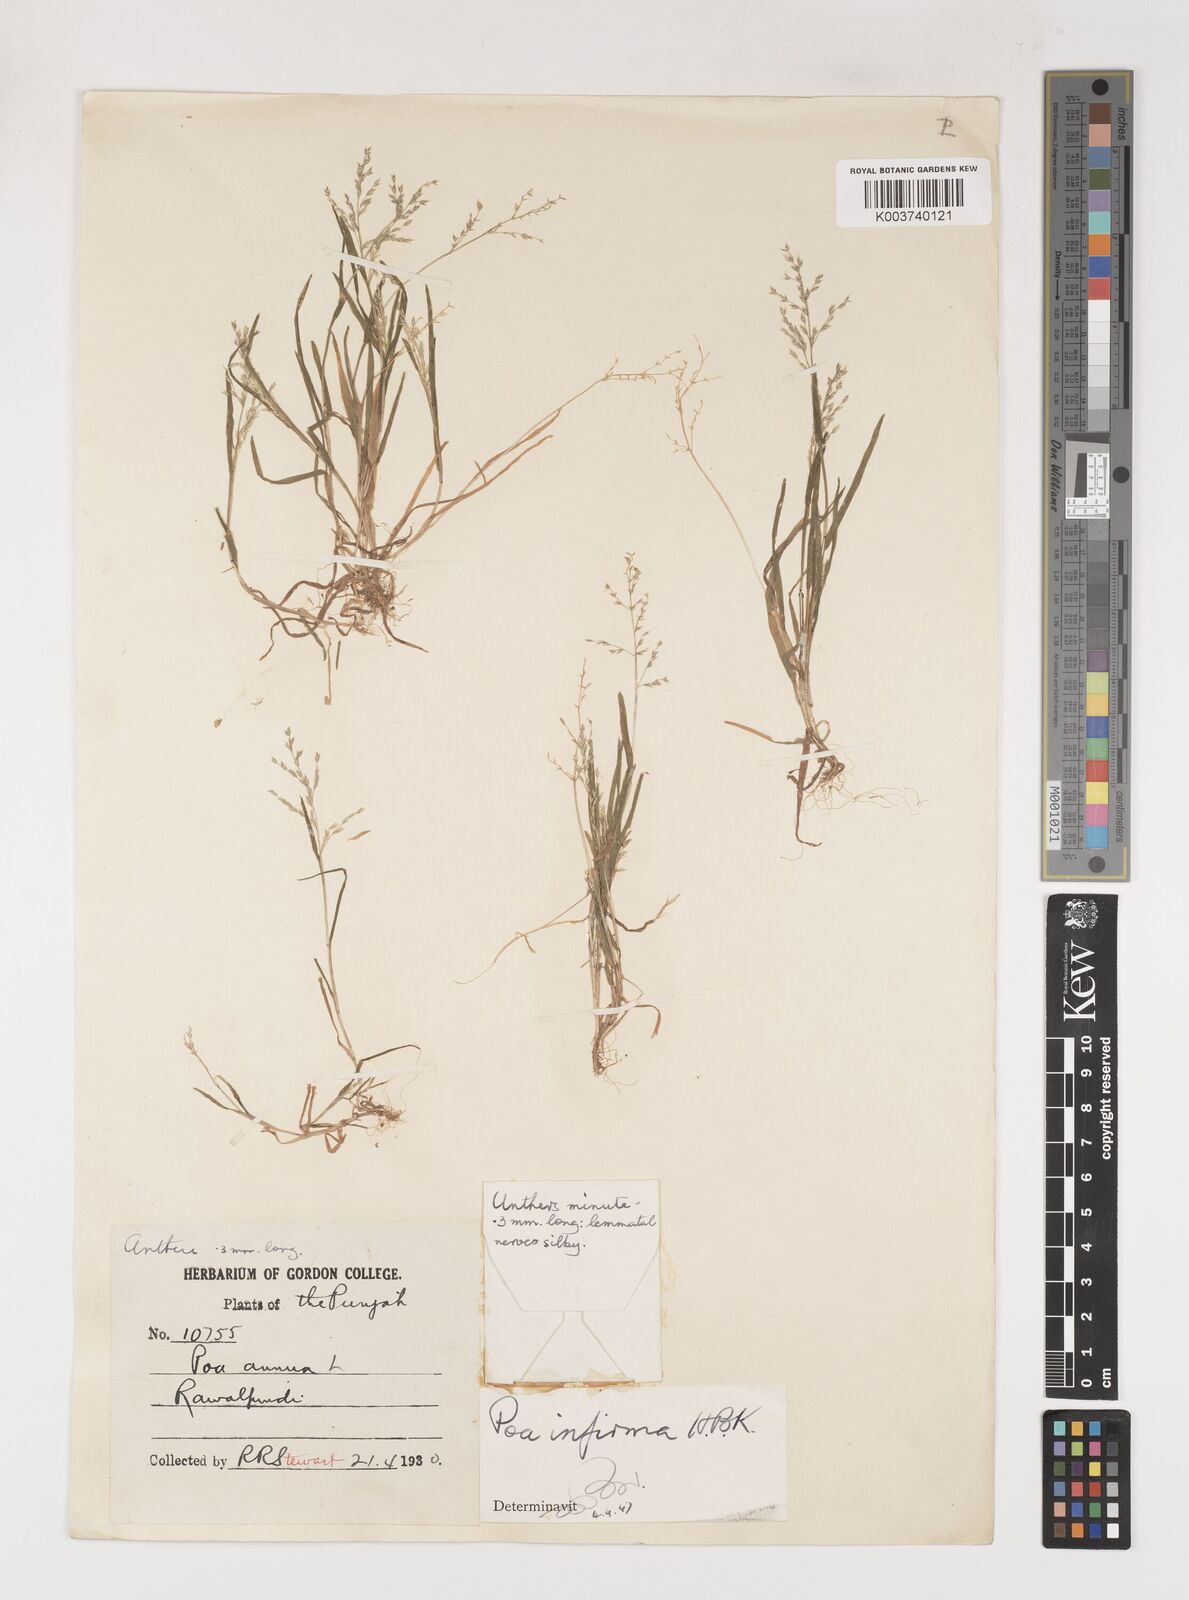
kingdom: Plantae
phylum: Tracheophyta
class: Liliopsida
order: Poales
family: Poaceae
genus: Poa
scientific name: Poa infirma
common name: Weak bluegrass
